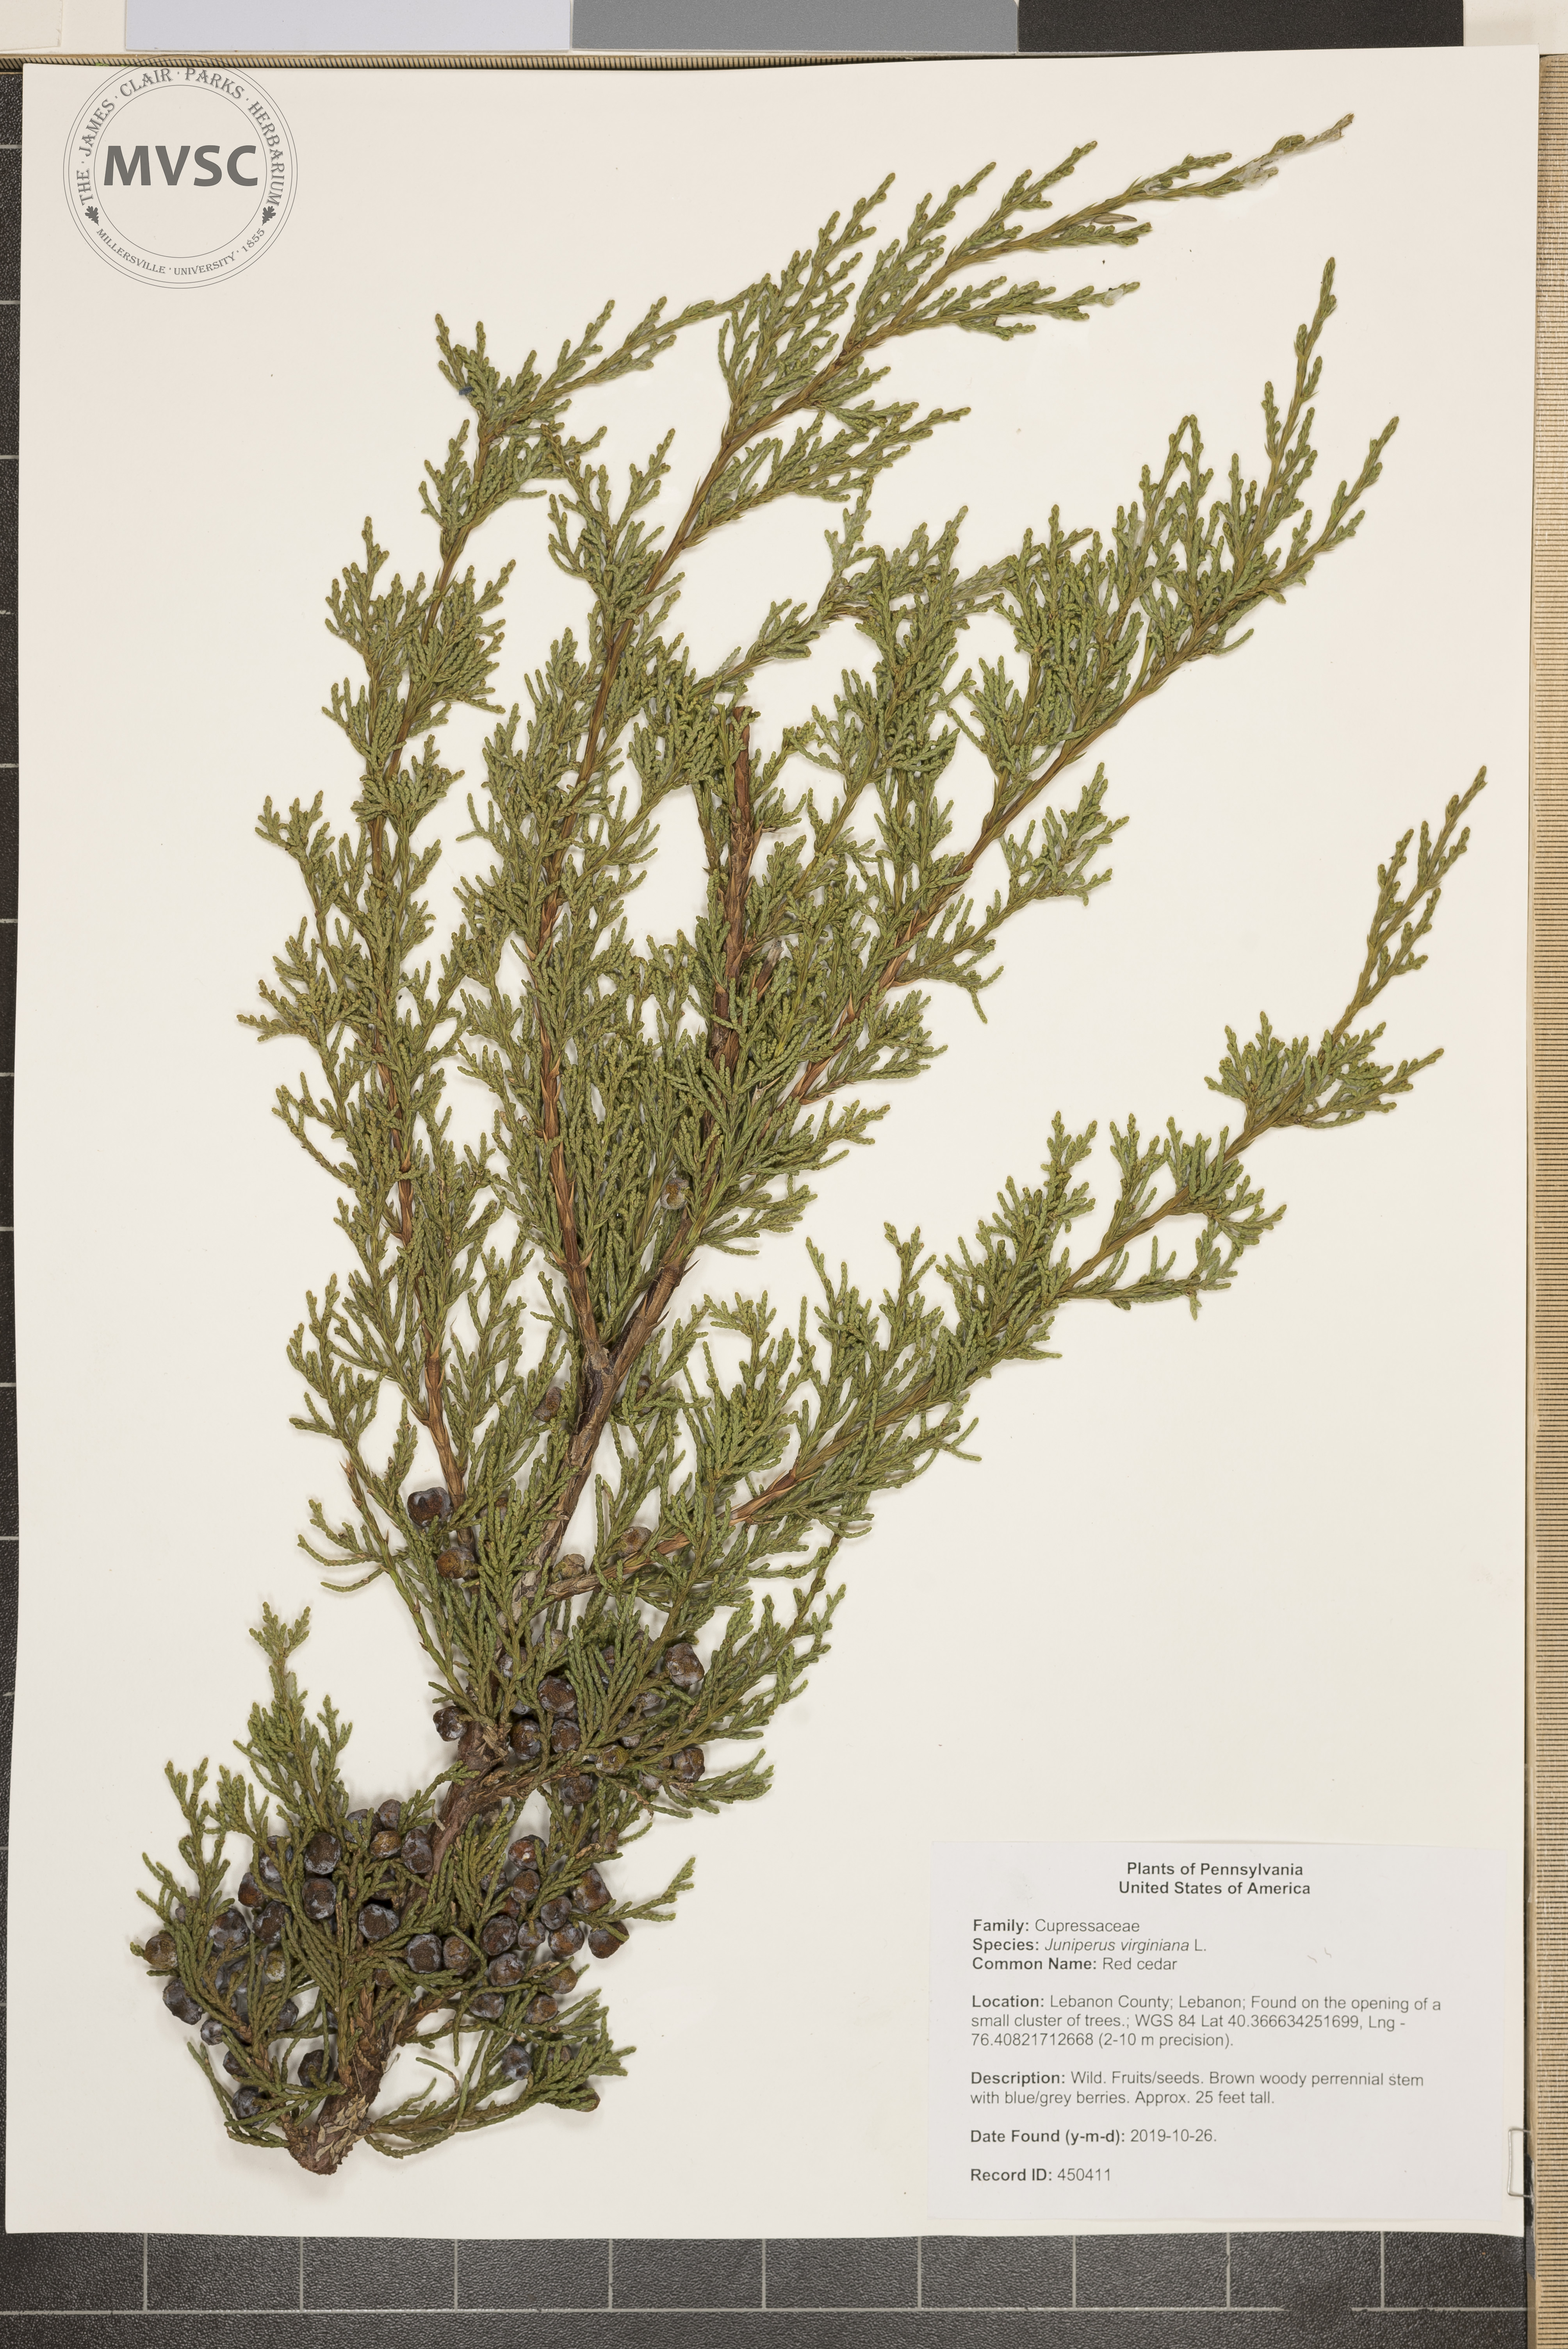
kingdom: Plantae
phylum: Tracheophyta
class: Pinopsida
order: Pinales
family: Cupressaceae
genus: Juniperus
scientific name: Juniperus virginiana
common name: Red cedar
